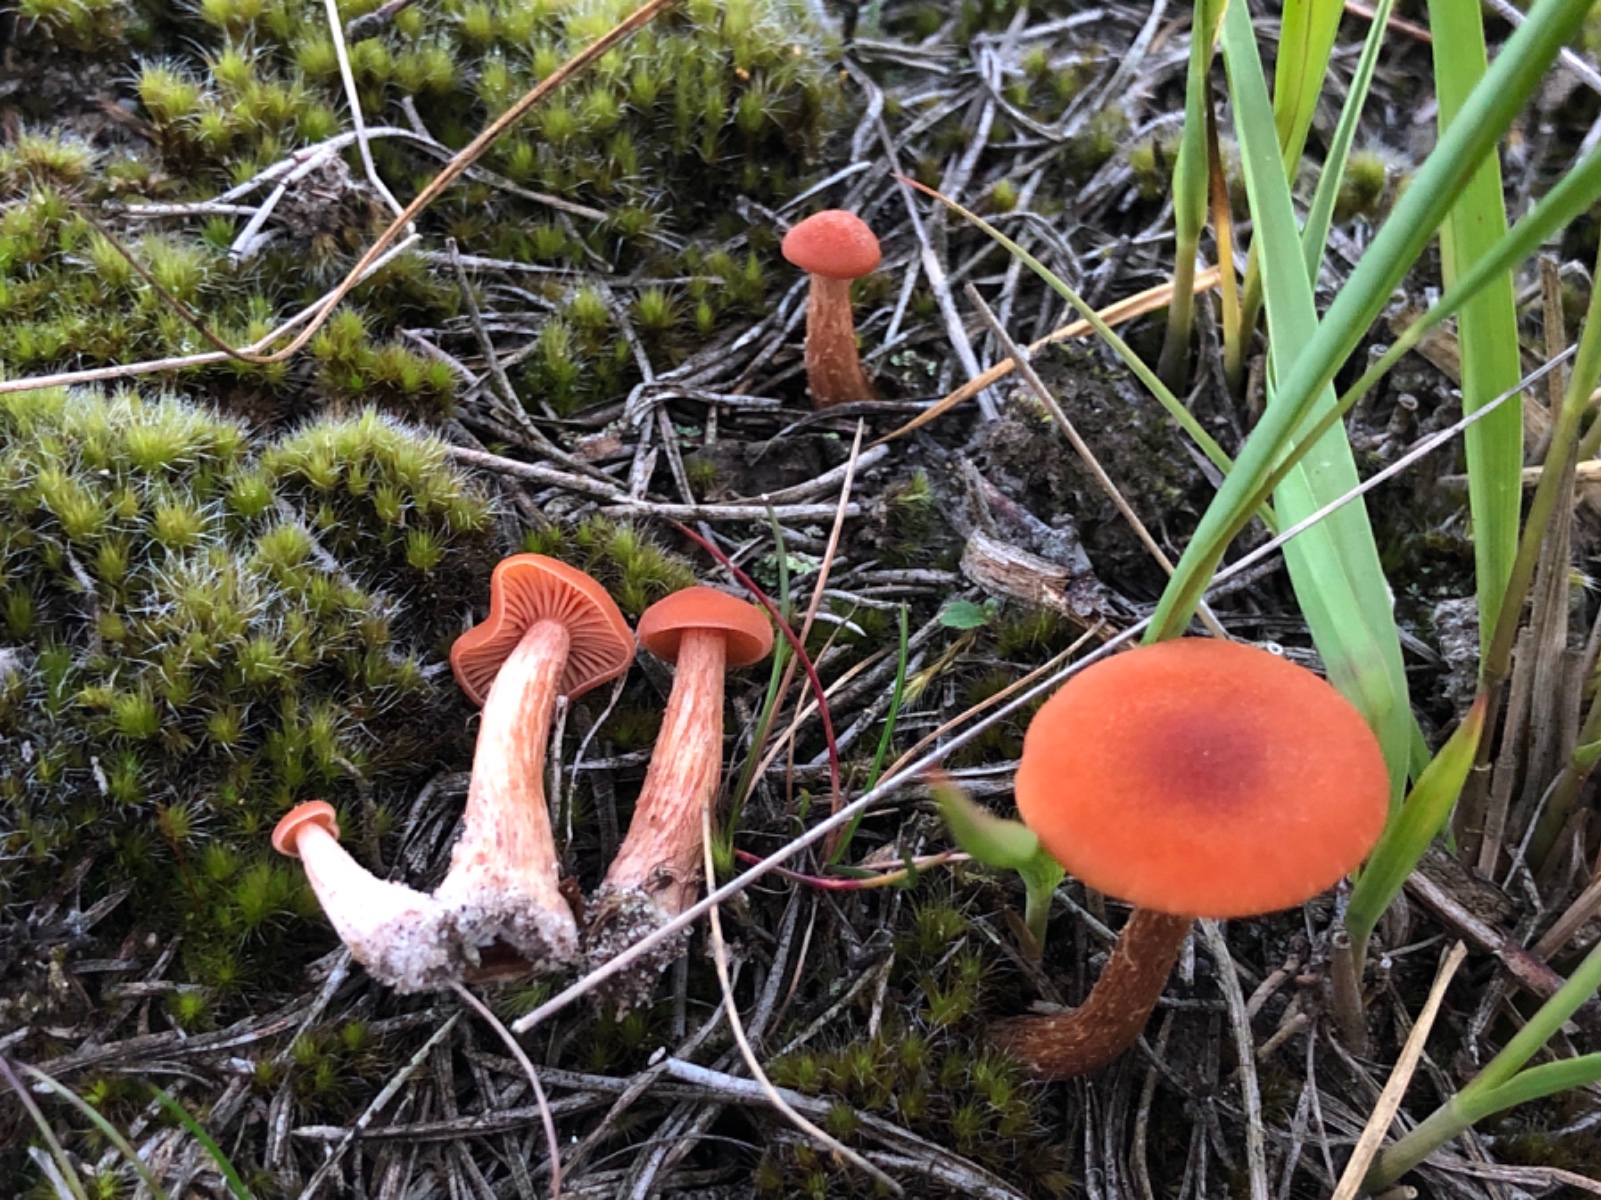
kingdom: Fungi
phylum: Basidiomycota
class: Agaricomycetes
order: Agaricales
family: Hydnangiaceae
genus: Laccaria
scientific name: Laccaria proxima
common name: stor ametysthat
